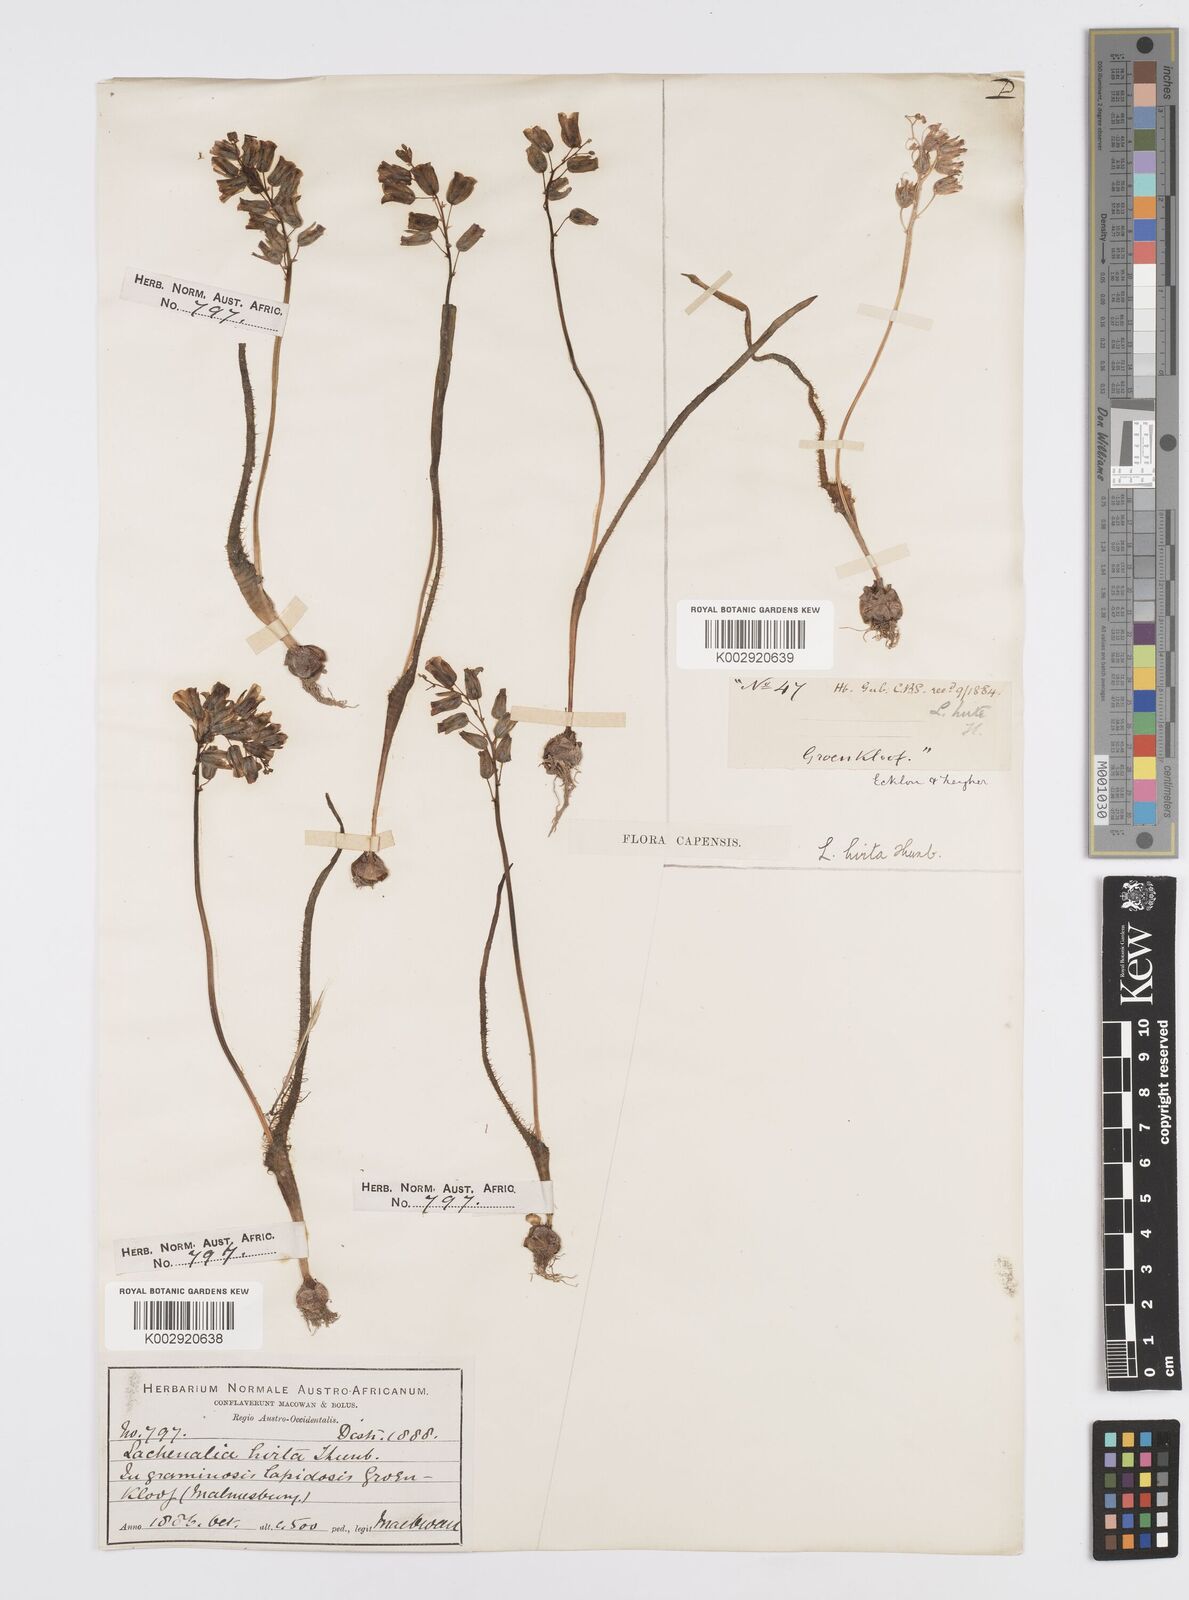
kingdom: Plantae
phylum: Tracheophyta
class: Liliopsida
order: Asparagales
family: Asparagaceae
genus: Lachenalia
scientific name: Lachenalia hirta
